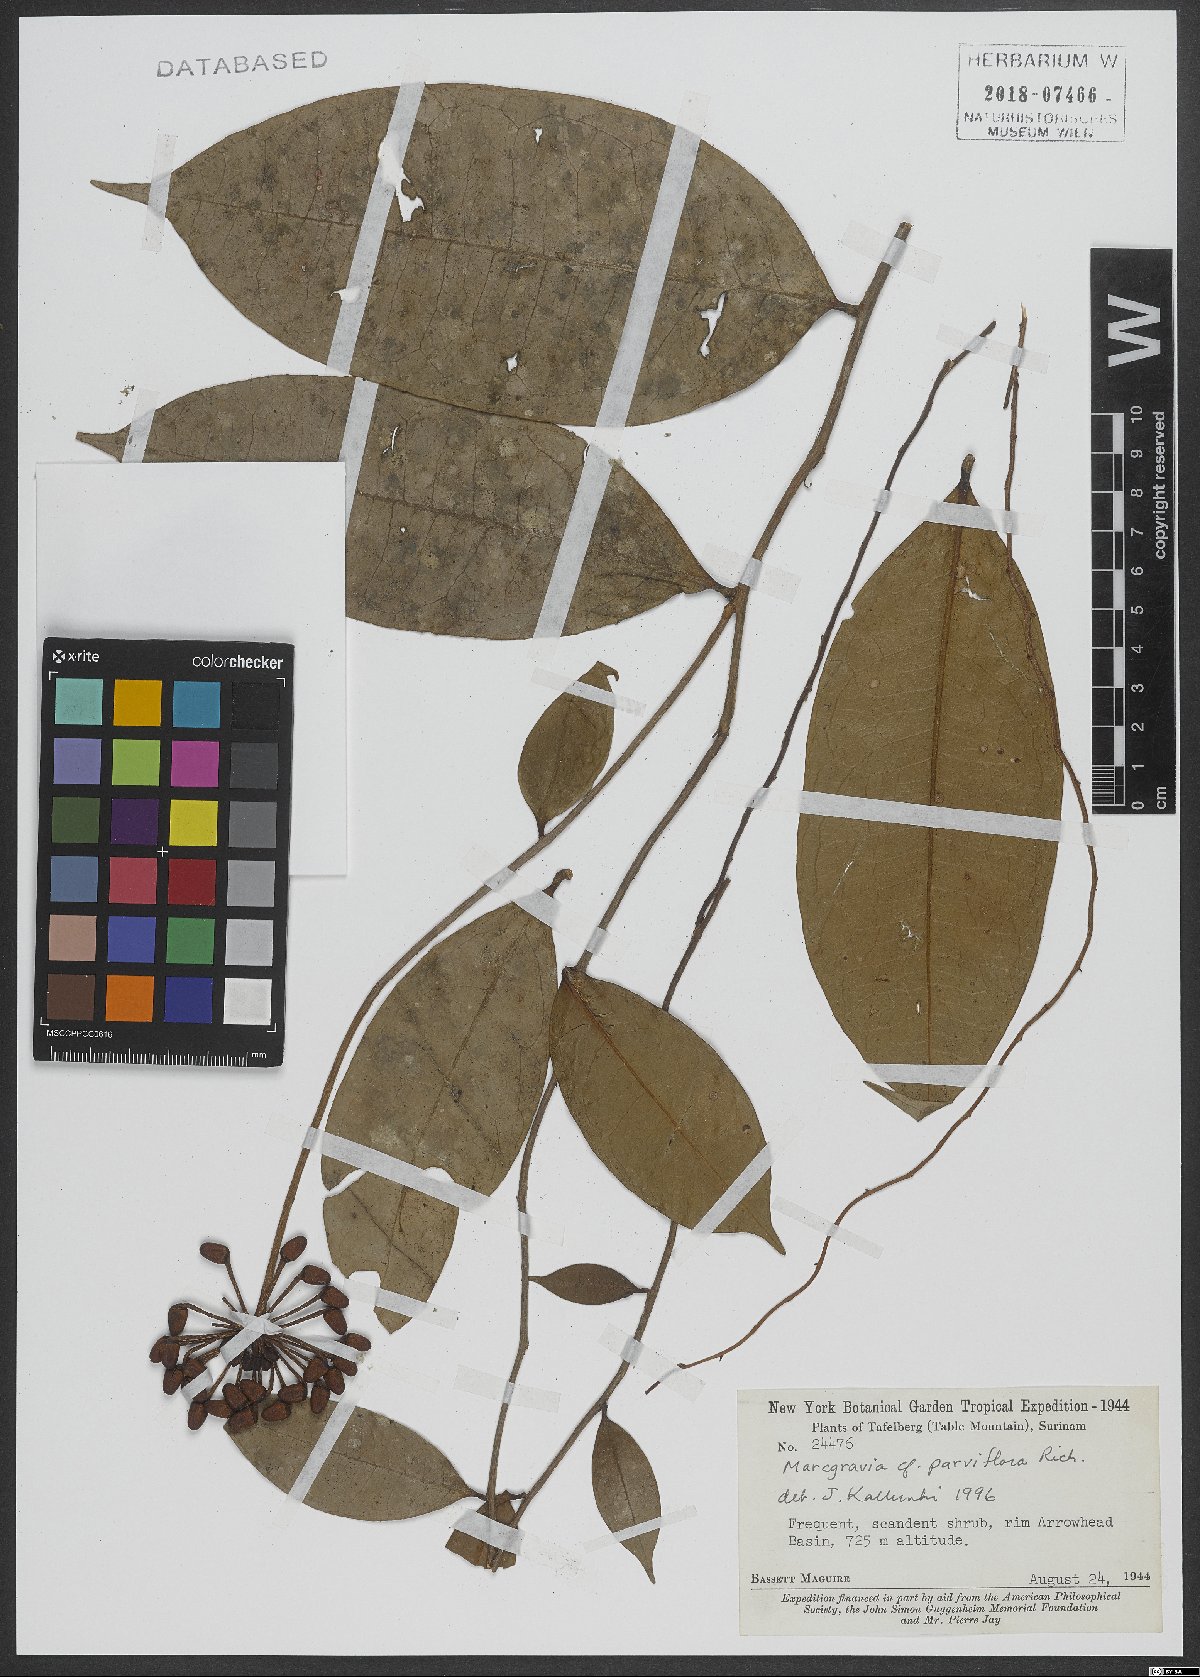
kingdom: Plantae
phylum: Tracheophyta
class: Magnoliopsida
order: Ericales
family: Marcgraviaceae
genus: Marcgravia
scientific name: Marcgravia pedunculosa
